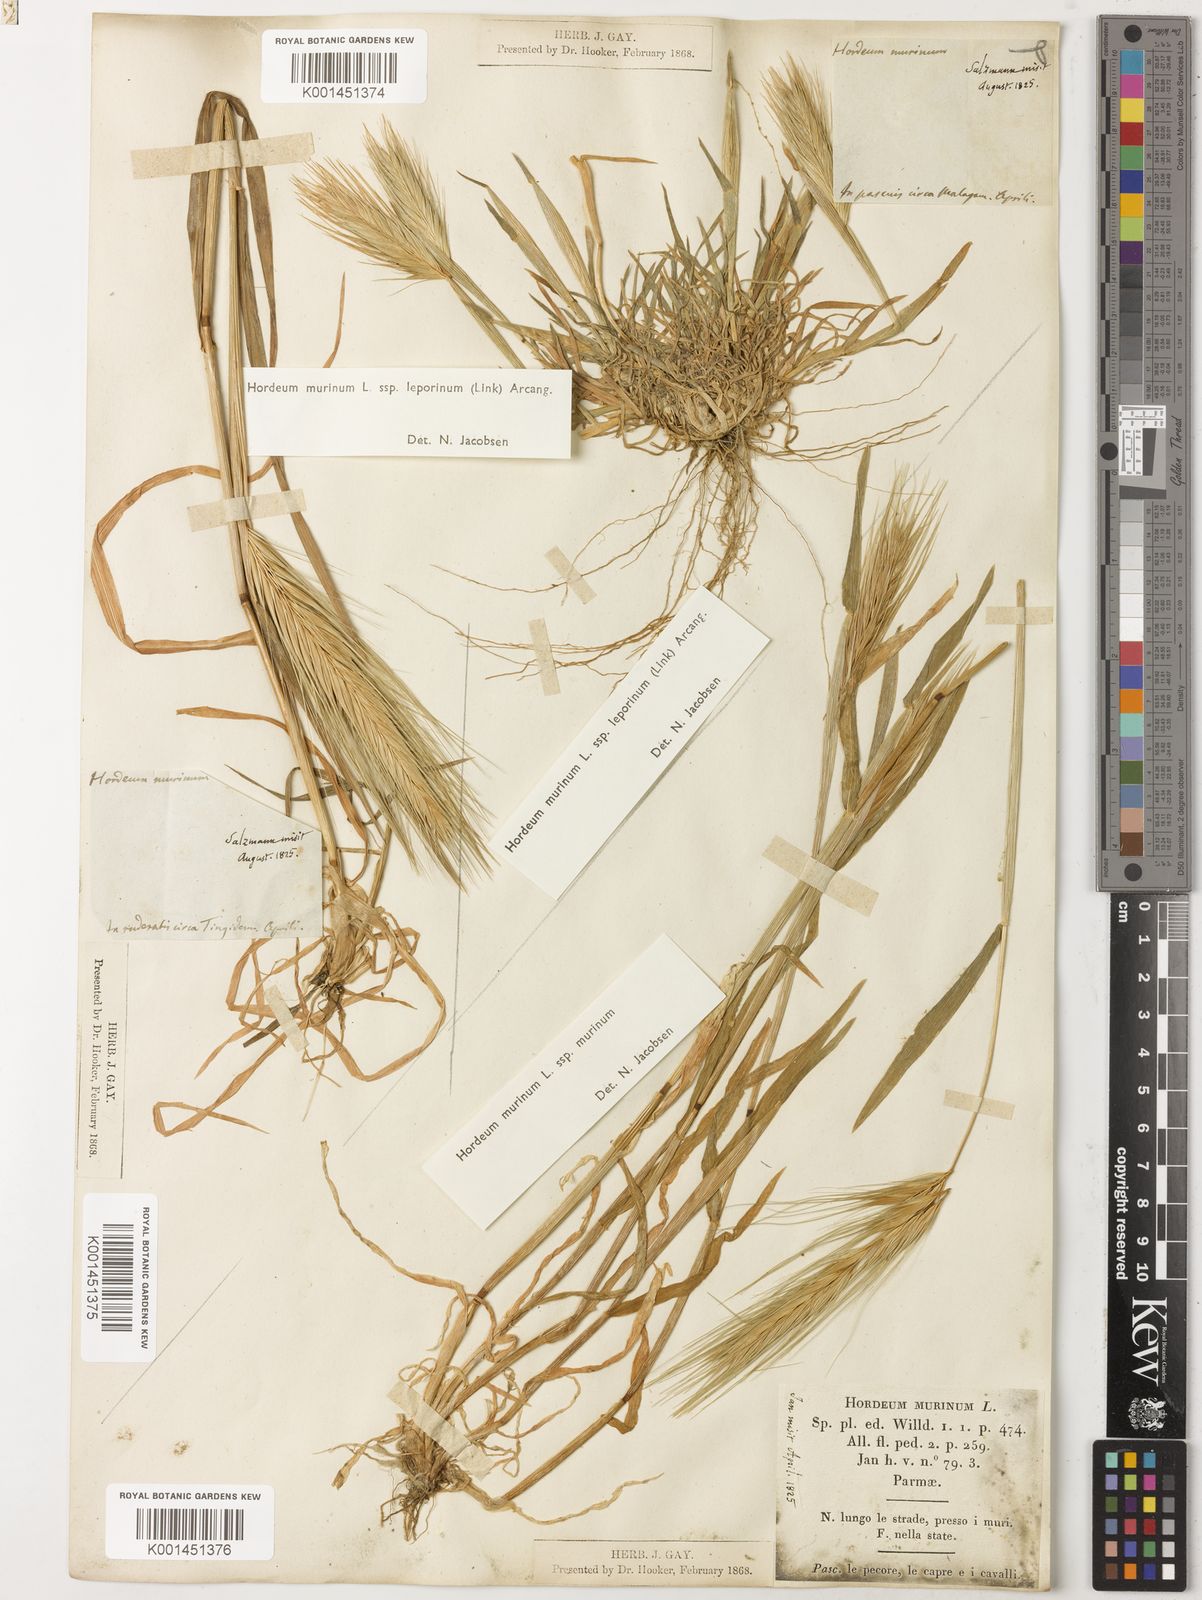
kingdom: Plantae
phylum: Tracheophyta
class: Liliopsida
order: Poales
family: Poaceae
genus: Hordeum
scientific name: Hordeum murinum
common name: Wall barley
